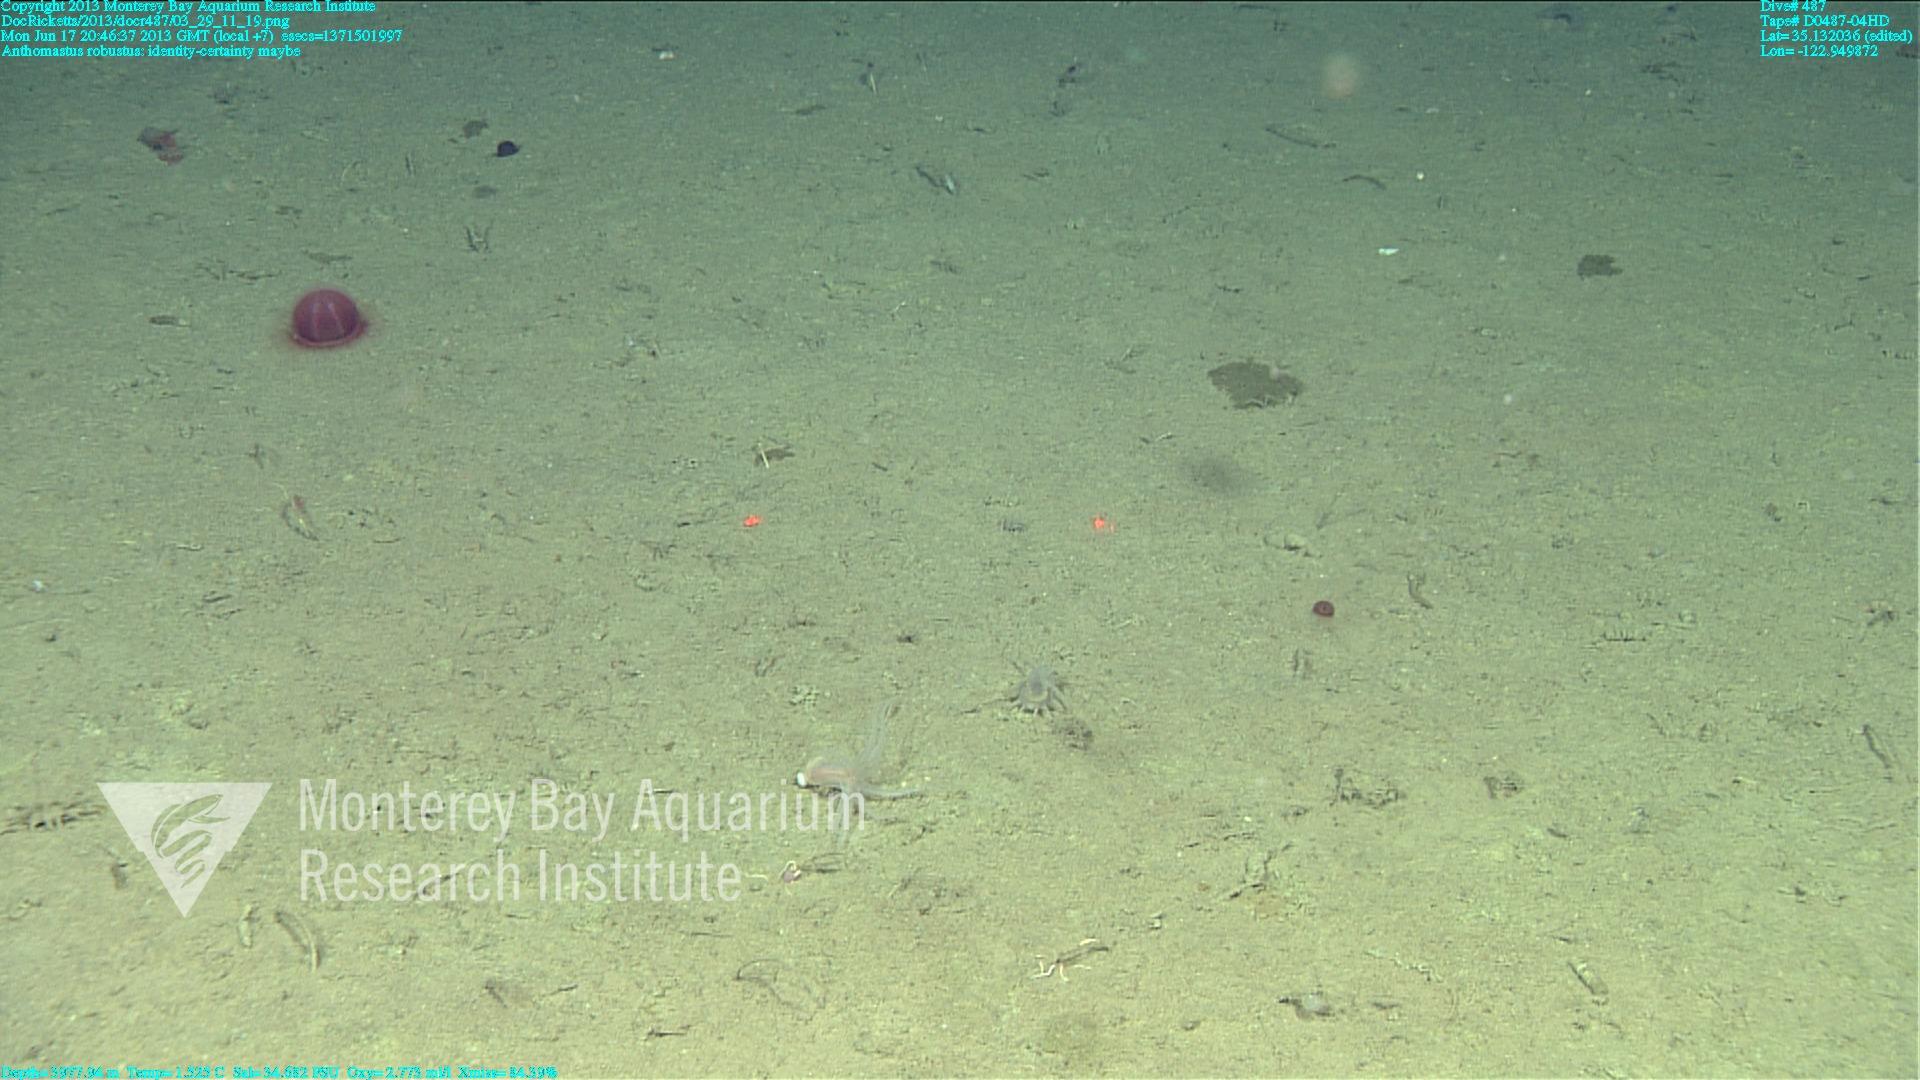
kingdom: Animalia
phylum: Cnidaria
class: Anthozoa
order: Scleralcyonacea
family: Coralliidae
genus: Bathyalcyon
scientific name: Bathyalcyon robustum
